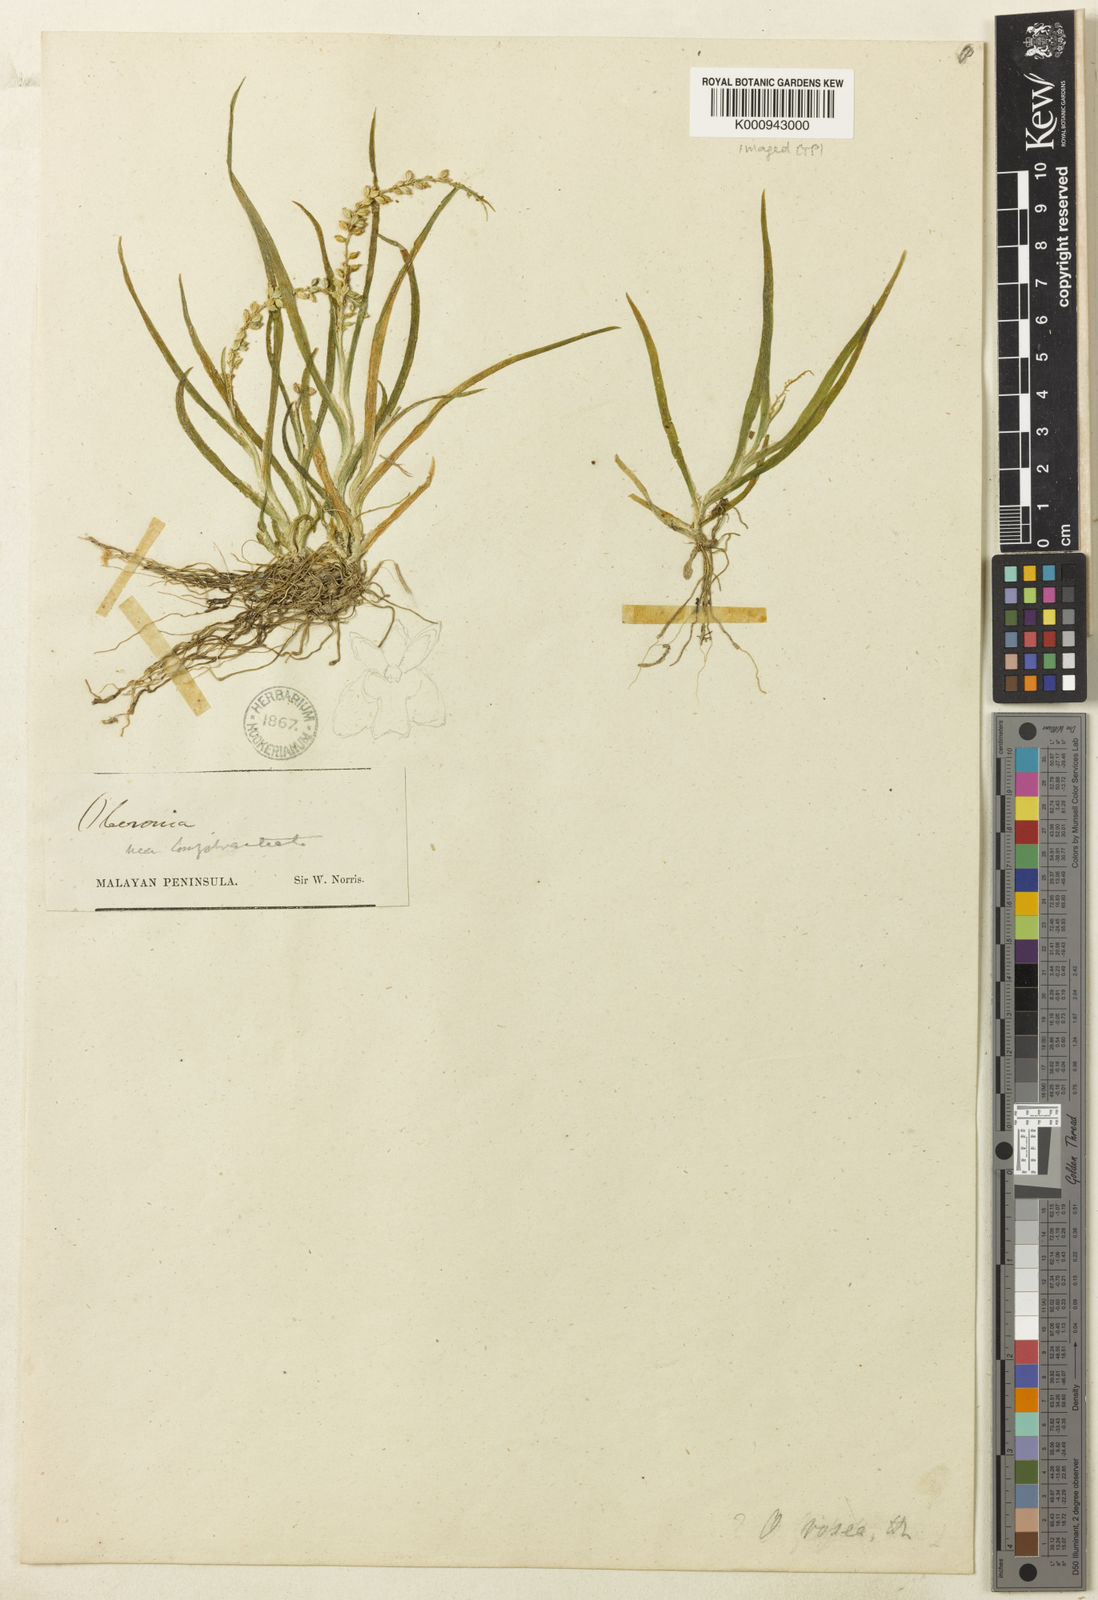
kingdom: Plantae
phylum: Tracheophyta
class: Liliopsida
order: Asparagales
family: Orchidaceae
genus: Oberonia
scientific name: Oberonia microphylla
